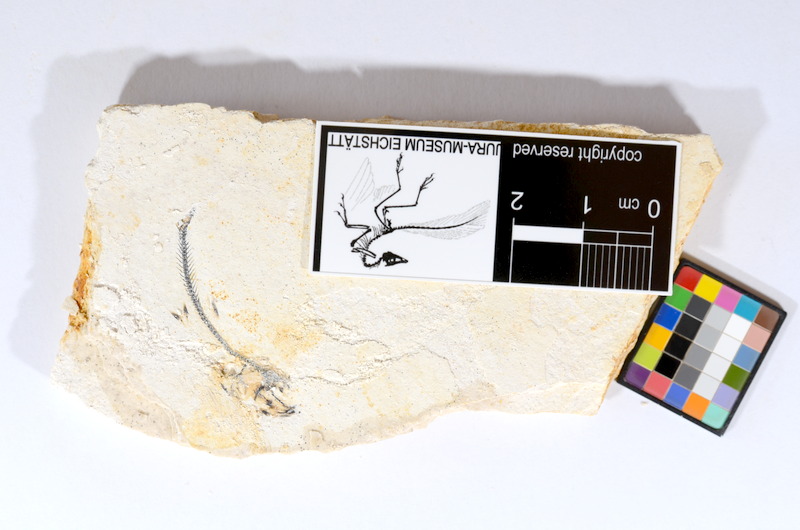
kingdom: Animalia
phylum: Chordata
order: Salmoniformes
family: Orthogonikleithridae
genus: Orthogonikleithrus
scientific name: Orthogonikleithrus hoelli
